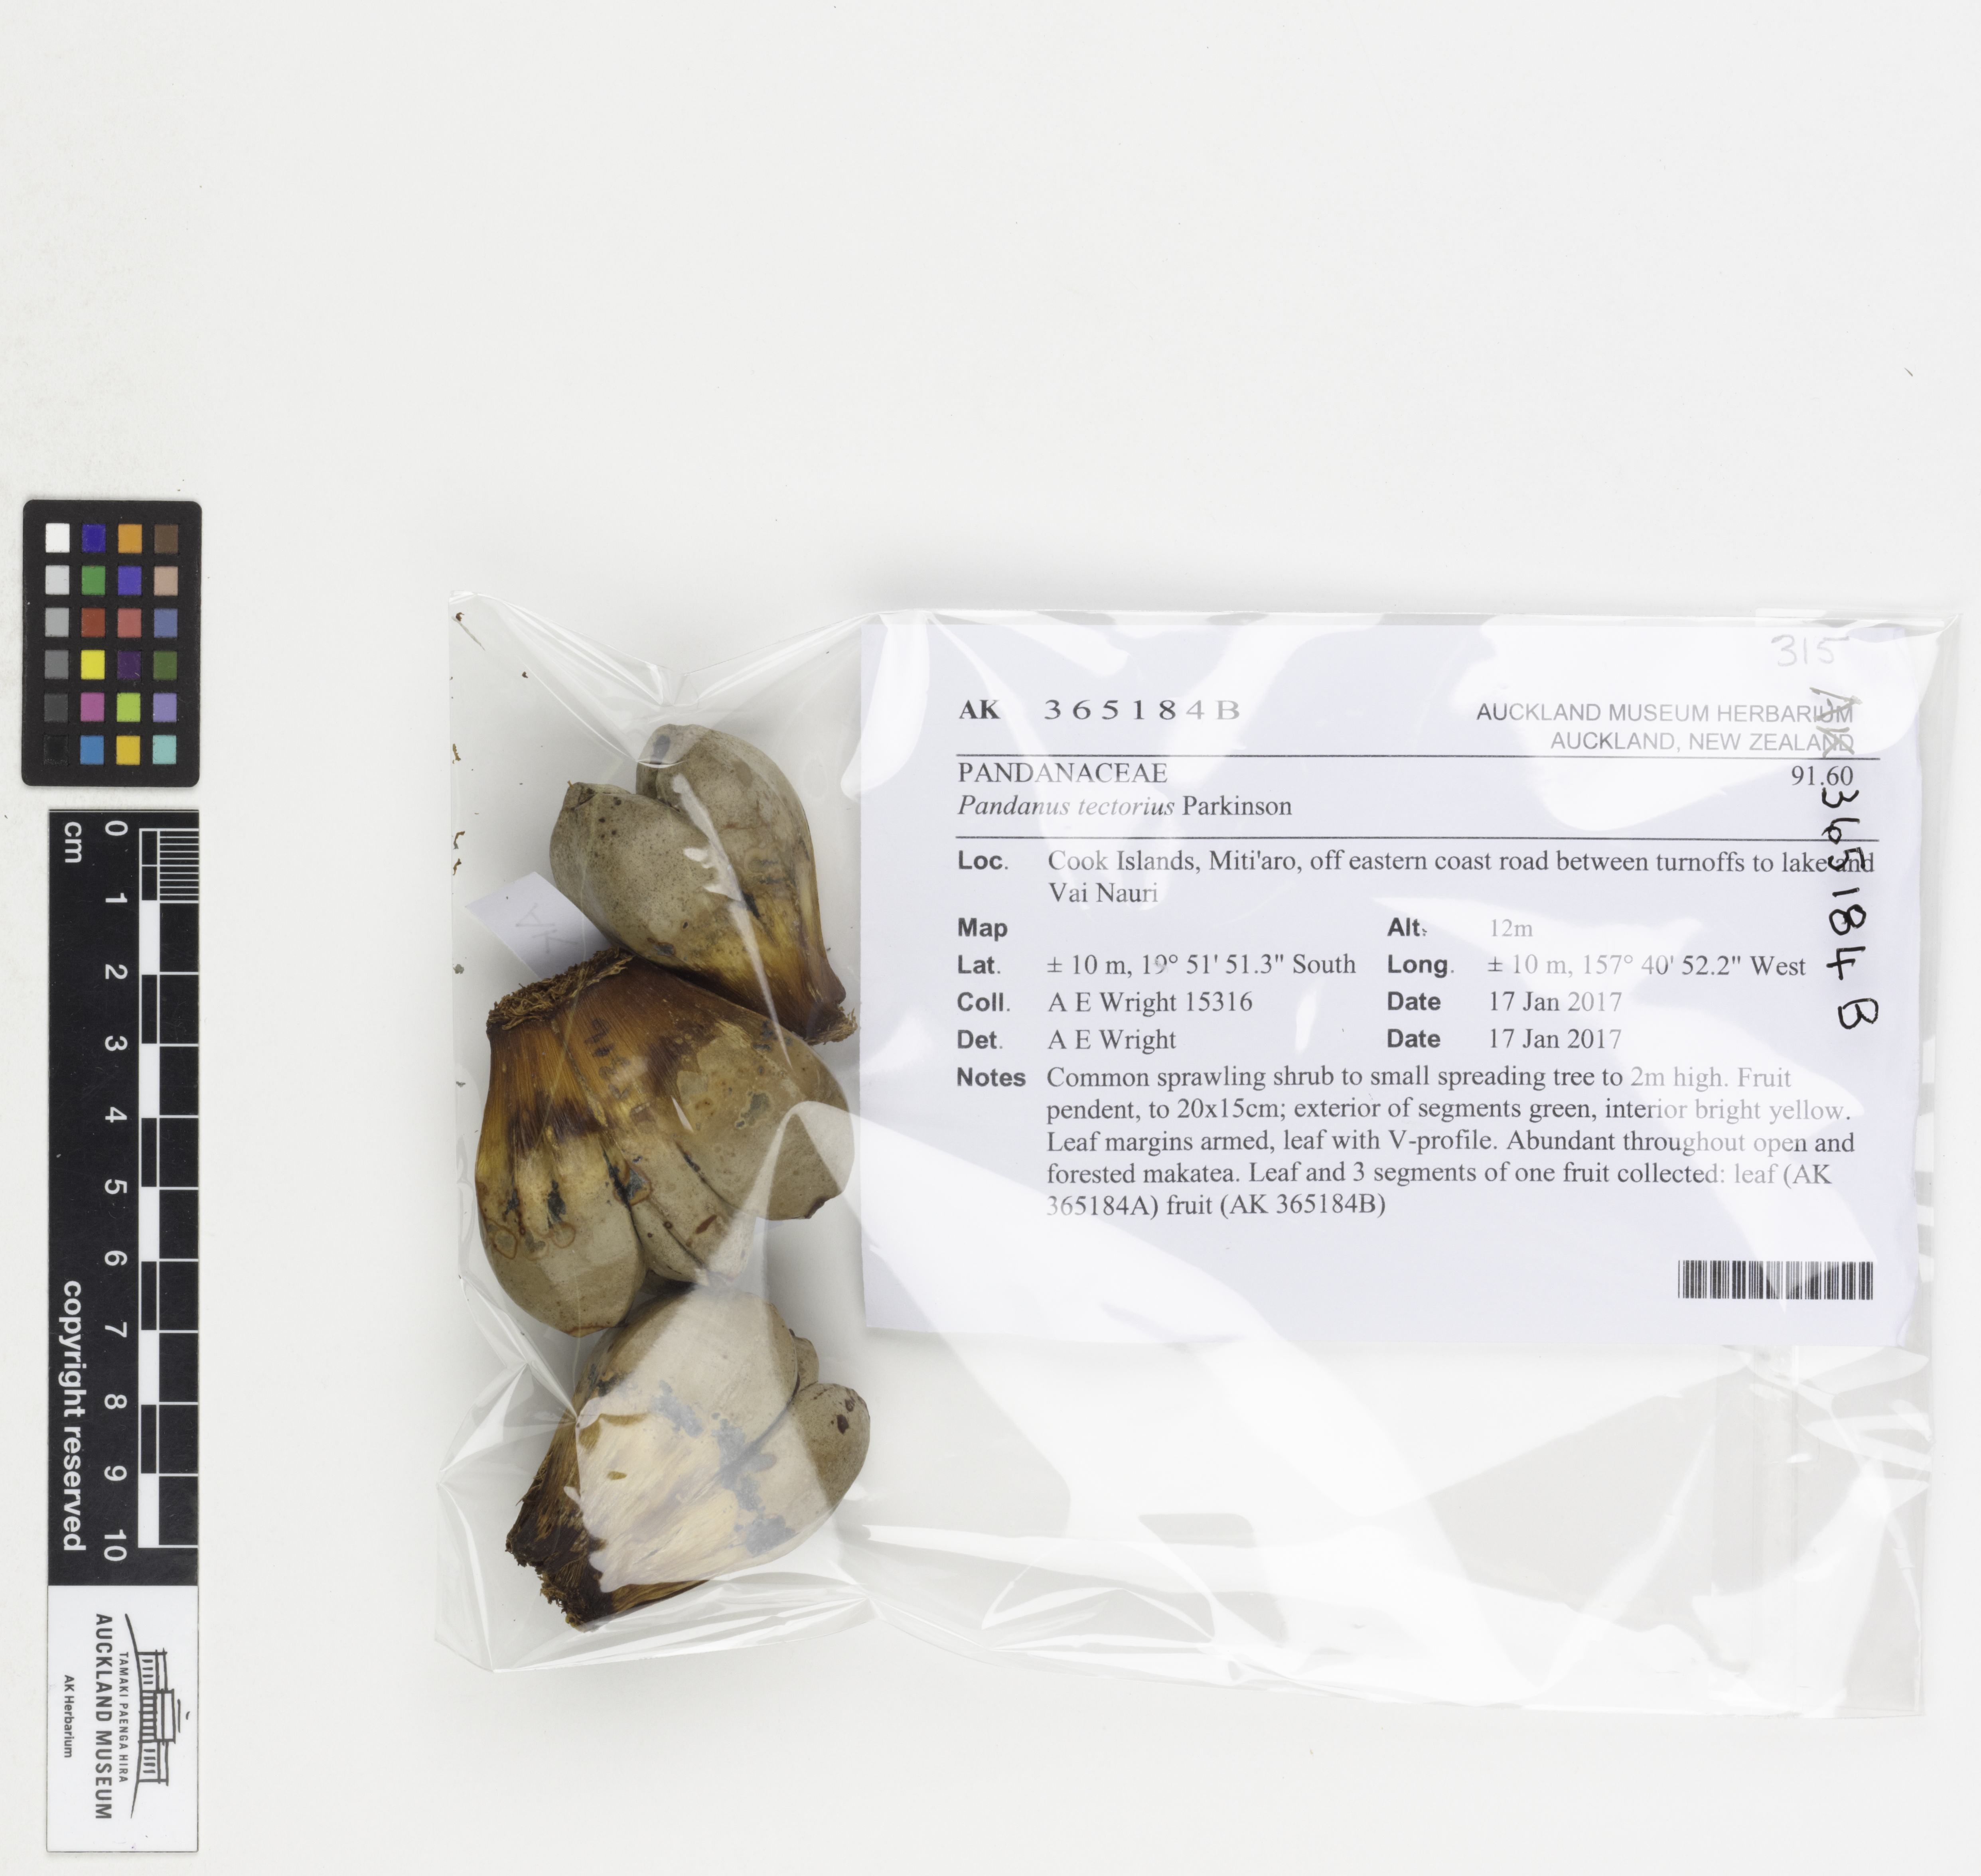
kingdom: Plantae
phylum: Tracheophyta
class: Liliopsida
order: Pandanales
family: Pandanaceae
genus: Pandanus
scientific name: Pandanus tectorius
